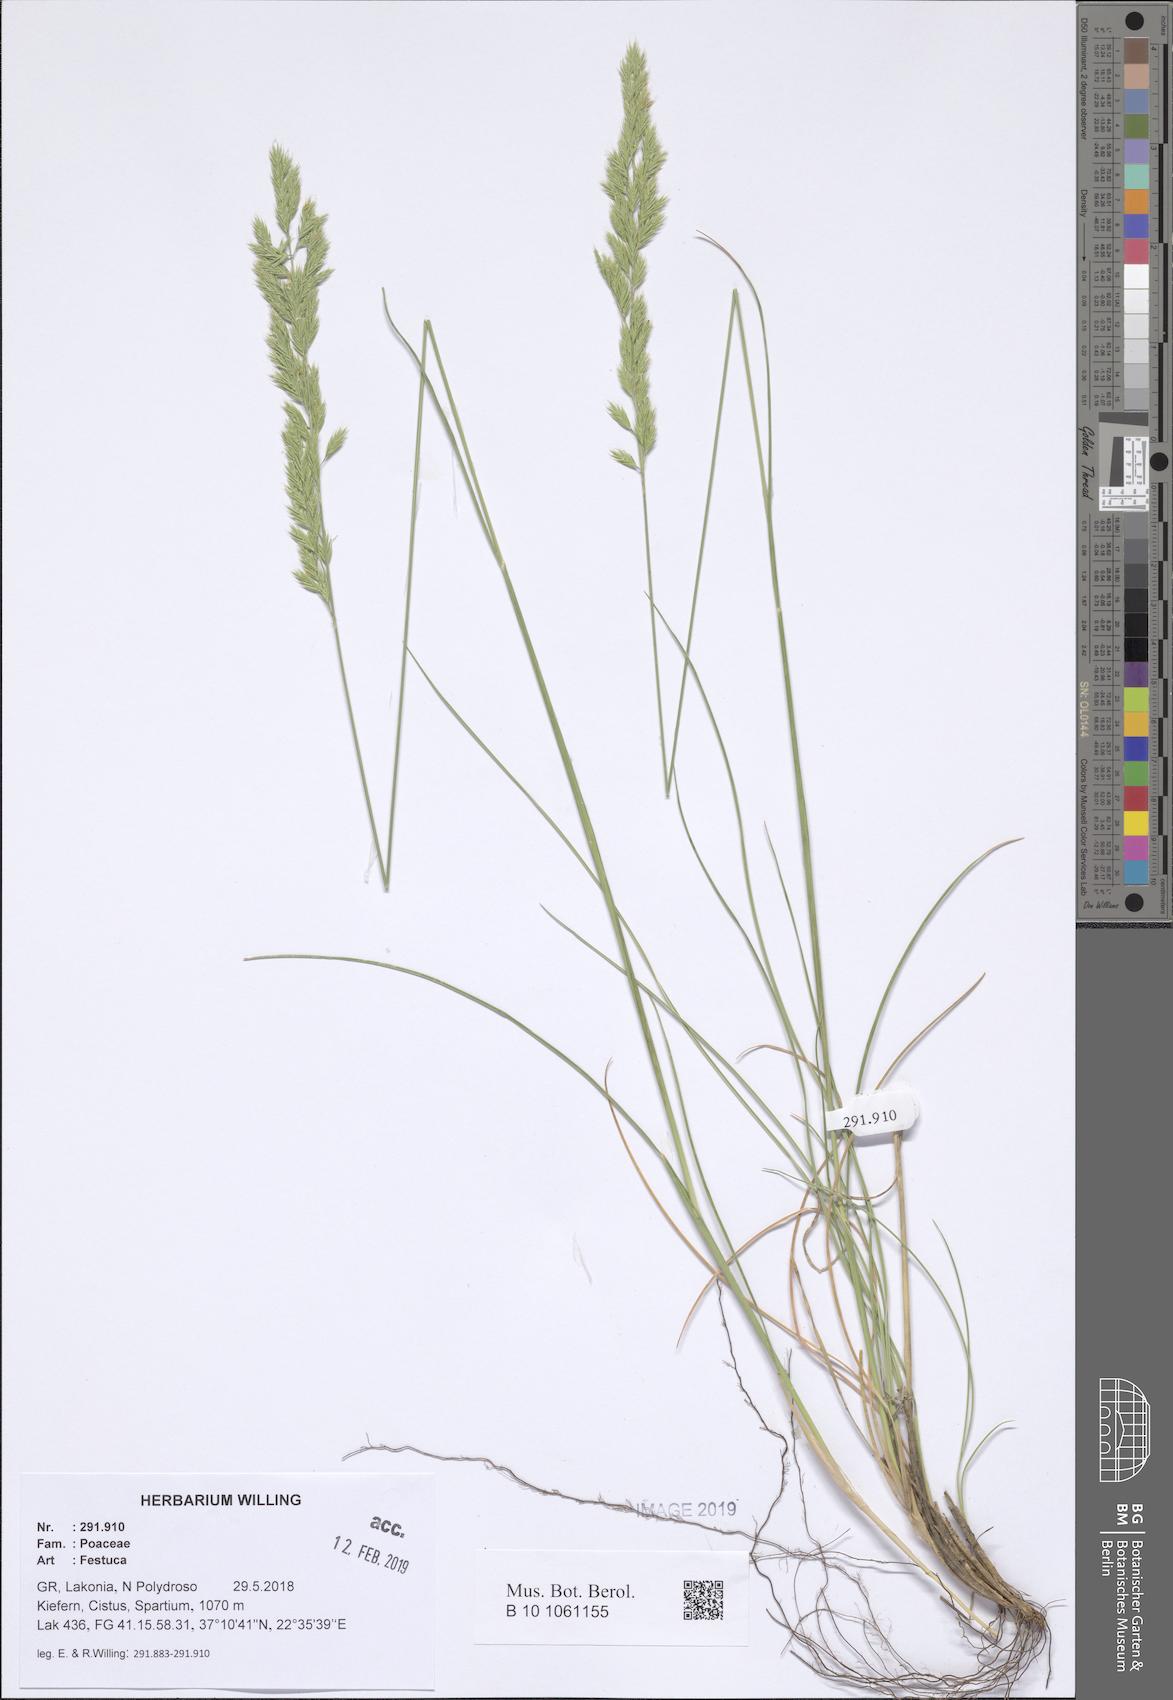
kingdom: Plantae
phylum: Tracheophyta
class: Liliopsida
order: Poales
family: Poaceae
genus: Festuca
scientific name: Festuca
